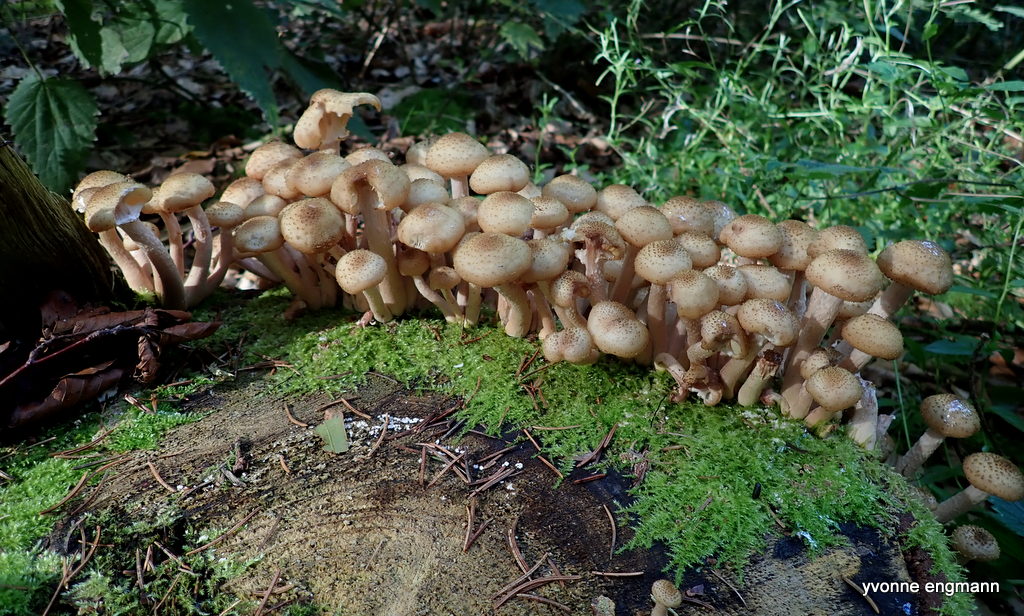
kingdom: Fungi
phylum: Basidiomycota
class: Agaricomycetes
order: Agaricales
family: Physalacriaceae
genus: Armillaria
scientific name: Armillaria lutea
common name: køllestokket honningsvamp
